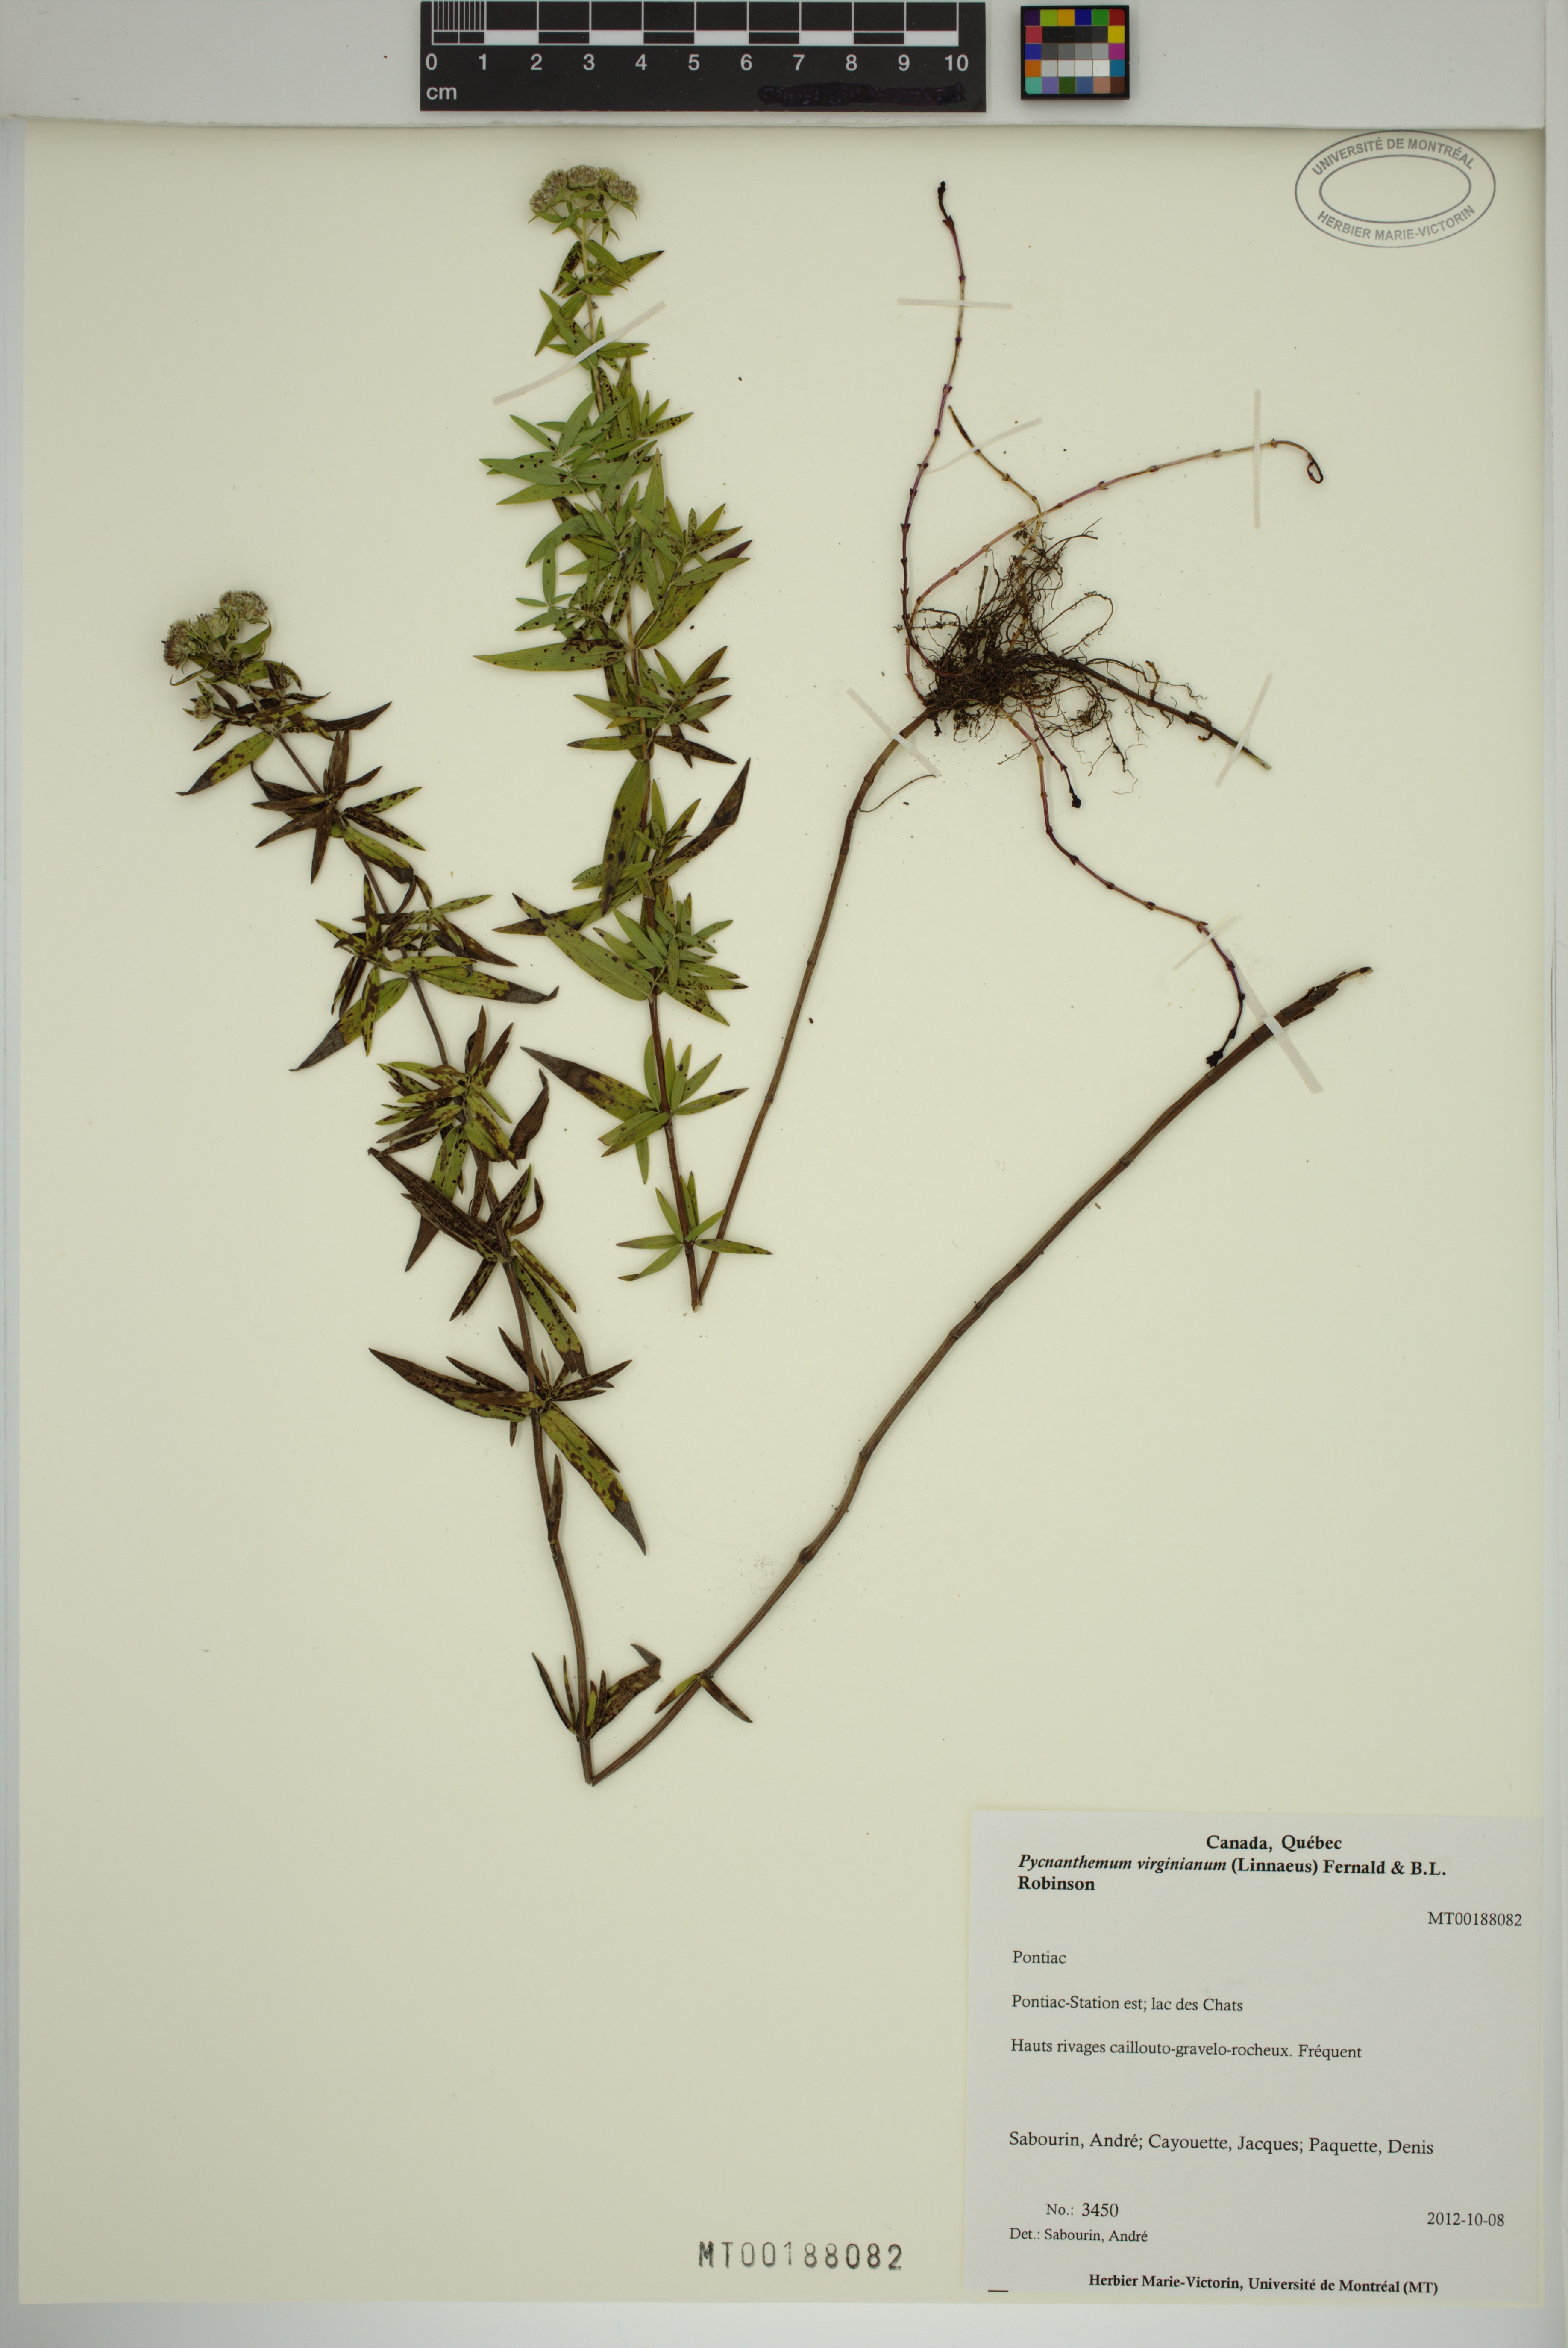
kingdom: Plantae
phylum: Tracheophyta
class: Magnoliopsida
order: Lamiales
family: Lamiaceae
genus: Pycnanthemum
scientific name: Pycnanthemum virginianum
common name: Virginia mountain-mint
